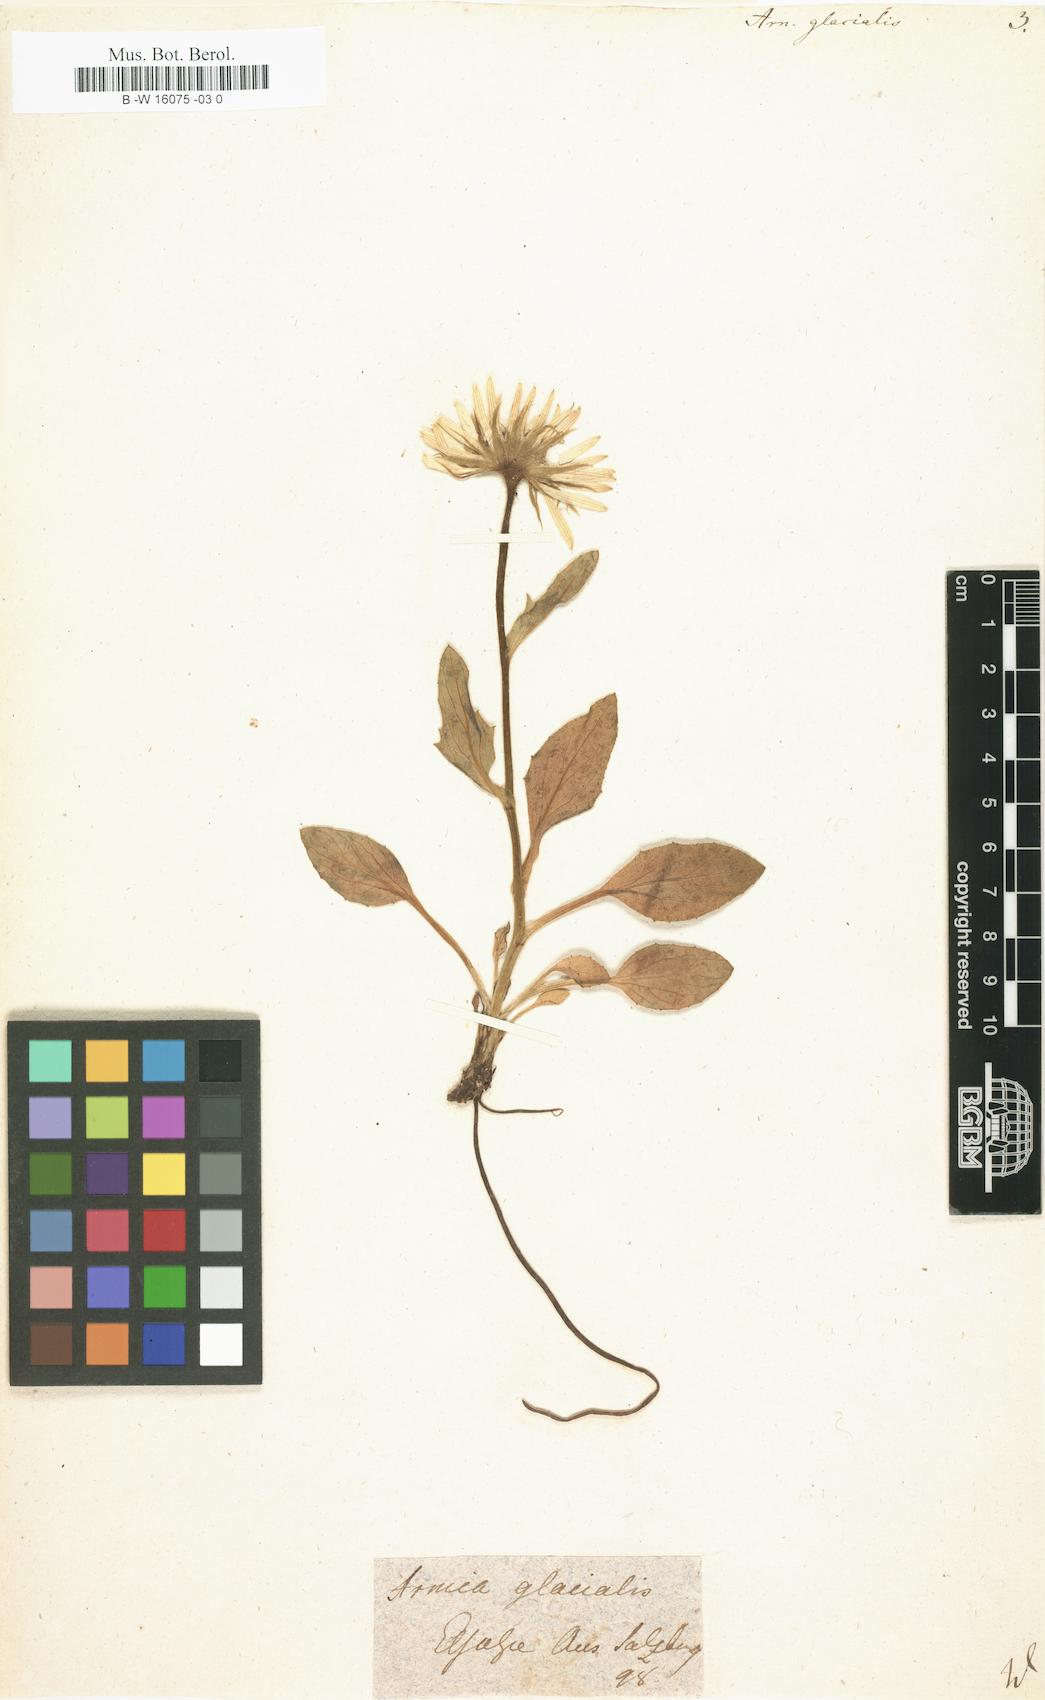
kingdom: Plantae
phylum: Tracheophyta
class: Magnoliopsida
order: Asterales
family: Asteraceae
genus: Doronicum
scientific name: Doronicum glaciale
